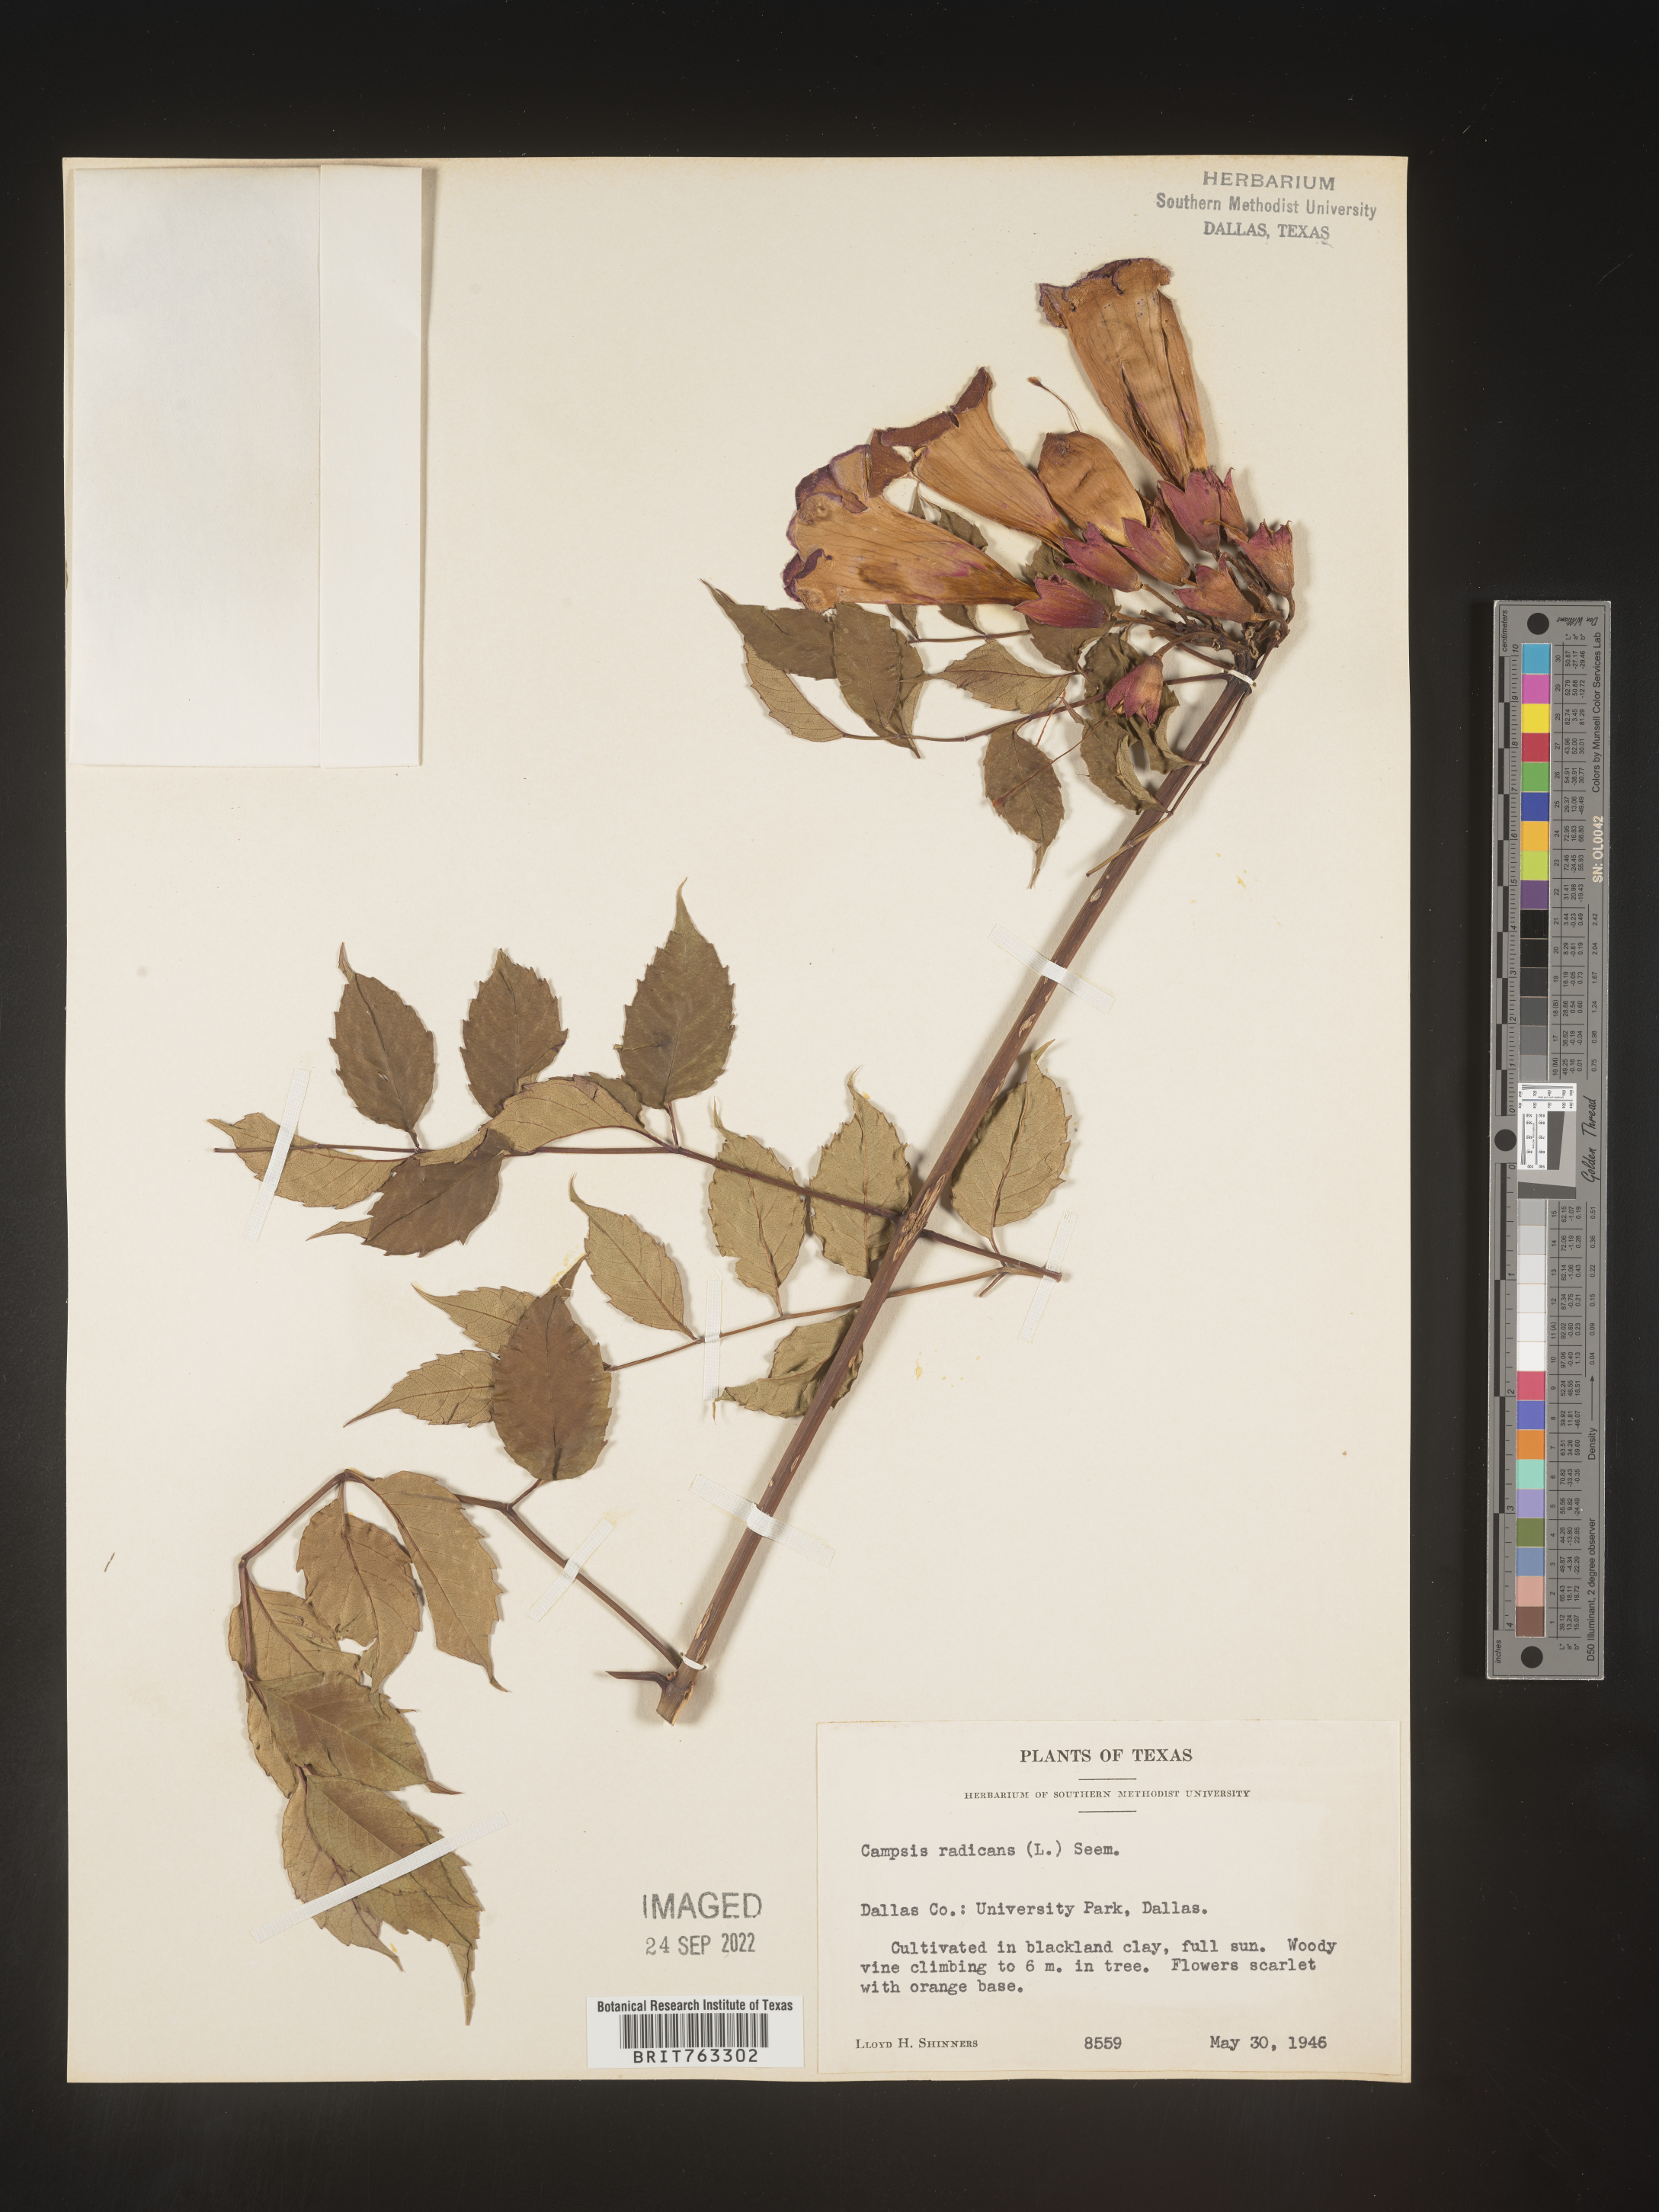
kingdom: Plantae
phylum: Tracheophyta
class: Magnoliopsida
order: Lamiales
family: Bignoniaceae
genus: Campsis
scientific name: Campsis
